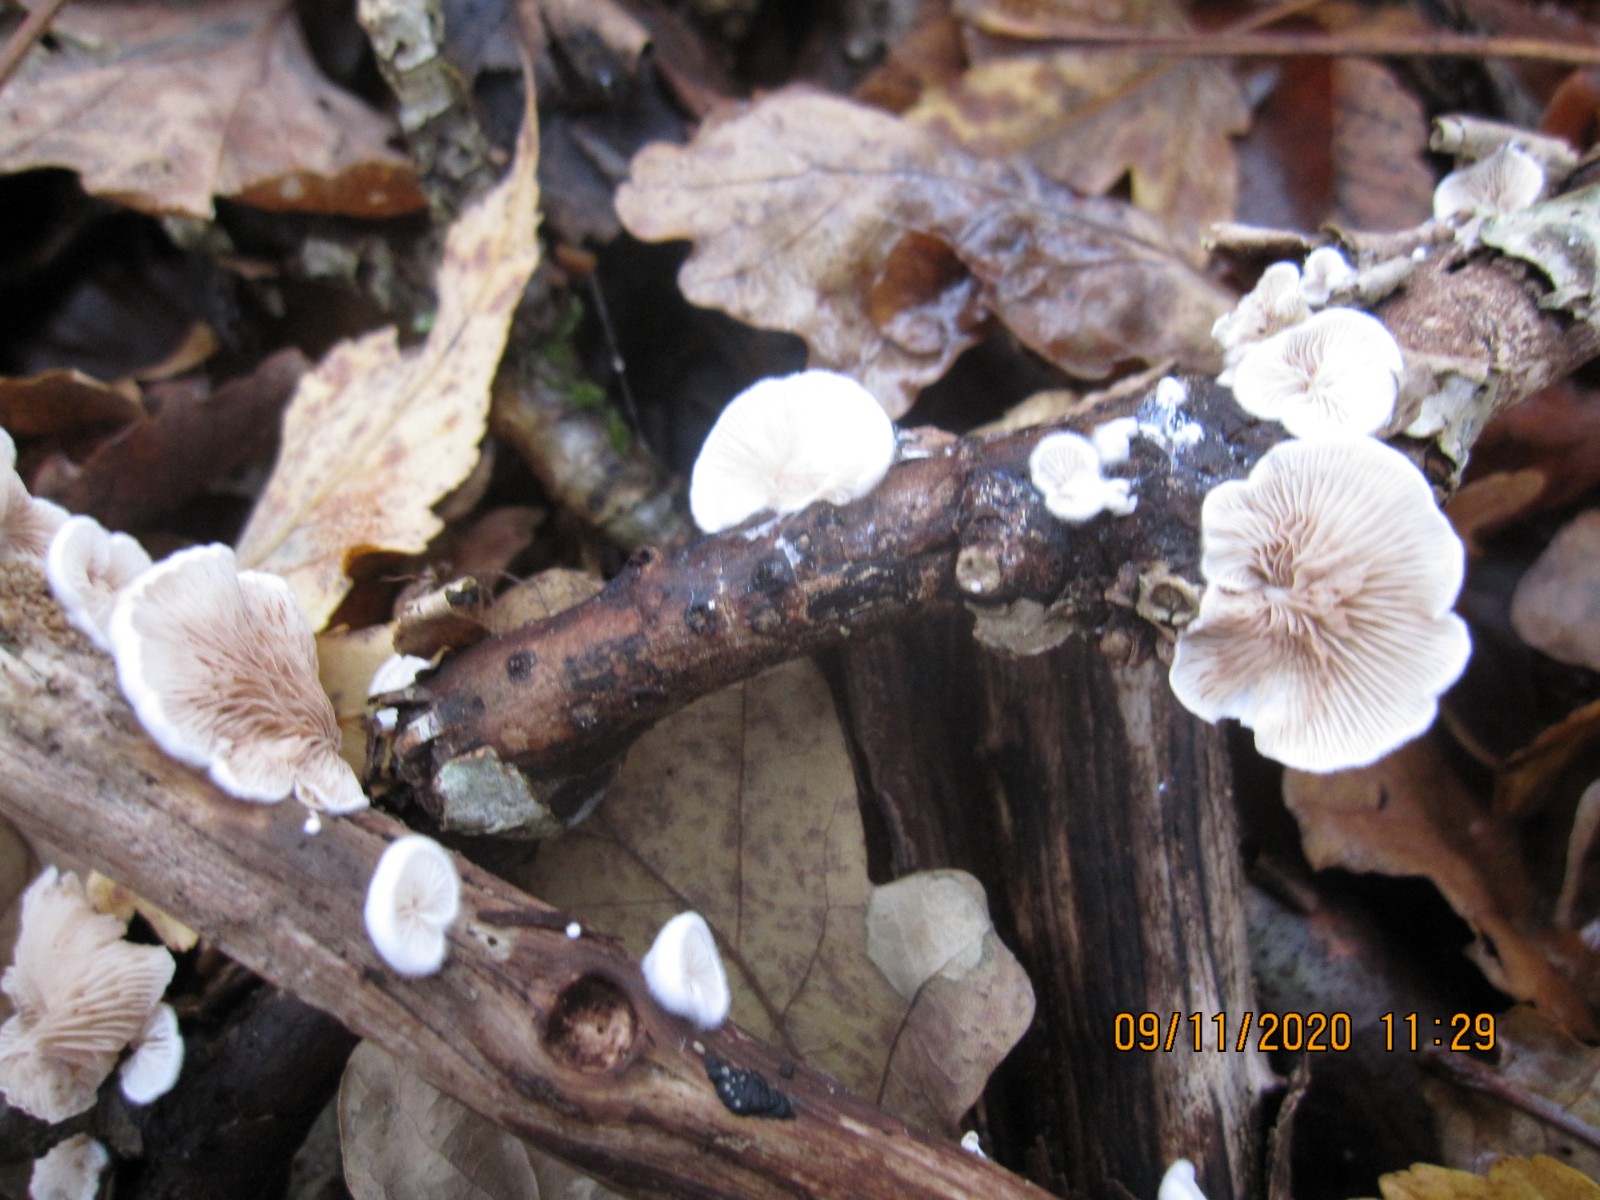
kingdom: Fungi
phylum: Basidiomycota
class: Agaricomycetes
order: Agaricales
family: Crepidotaceae
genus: Crepidotus
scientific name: Crepidotus variabilis
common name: forskelligformet muslingesvamp
